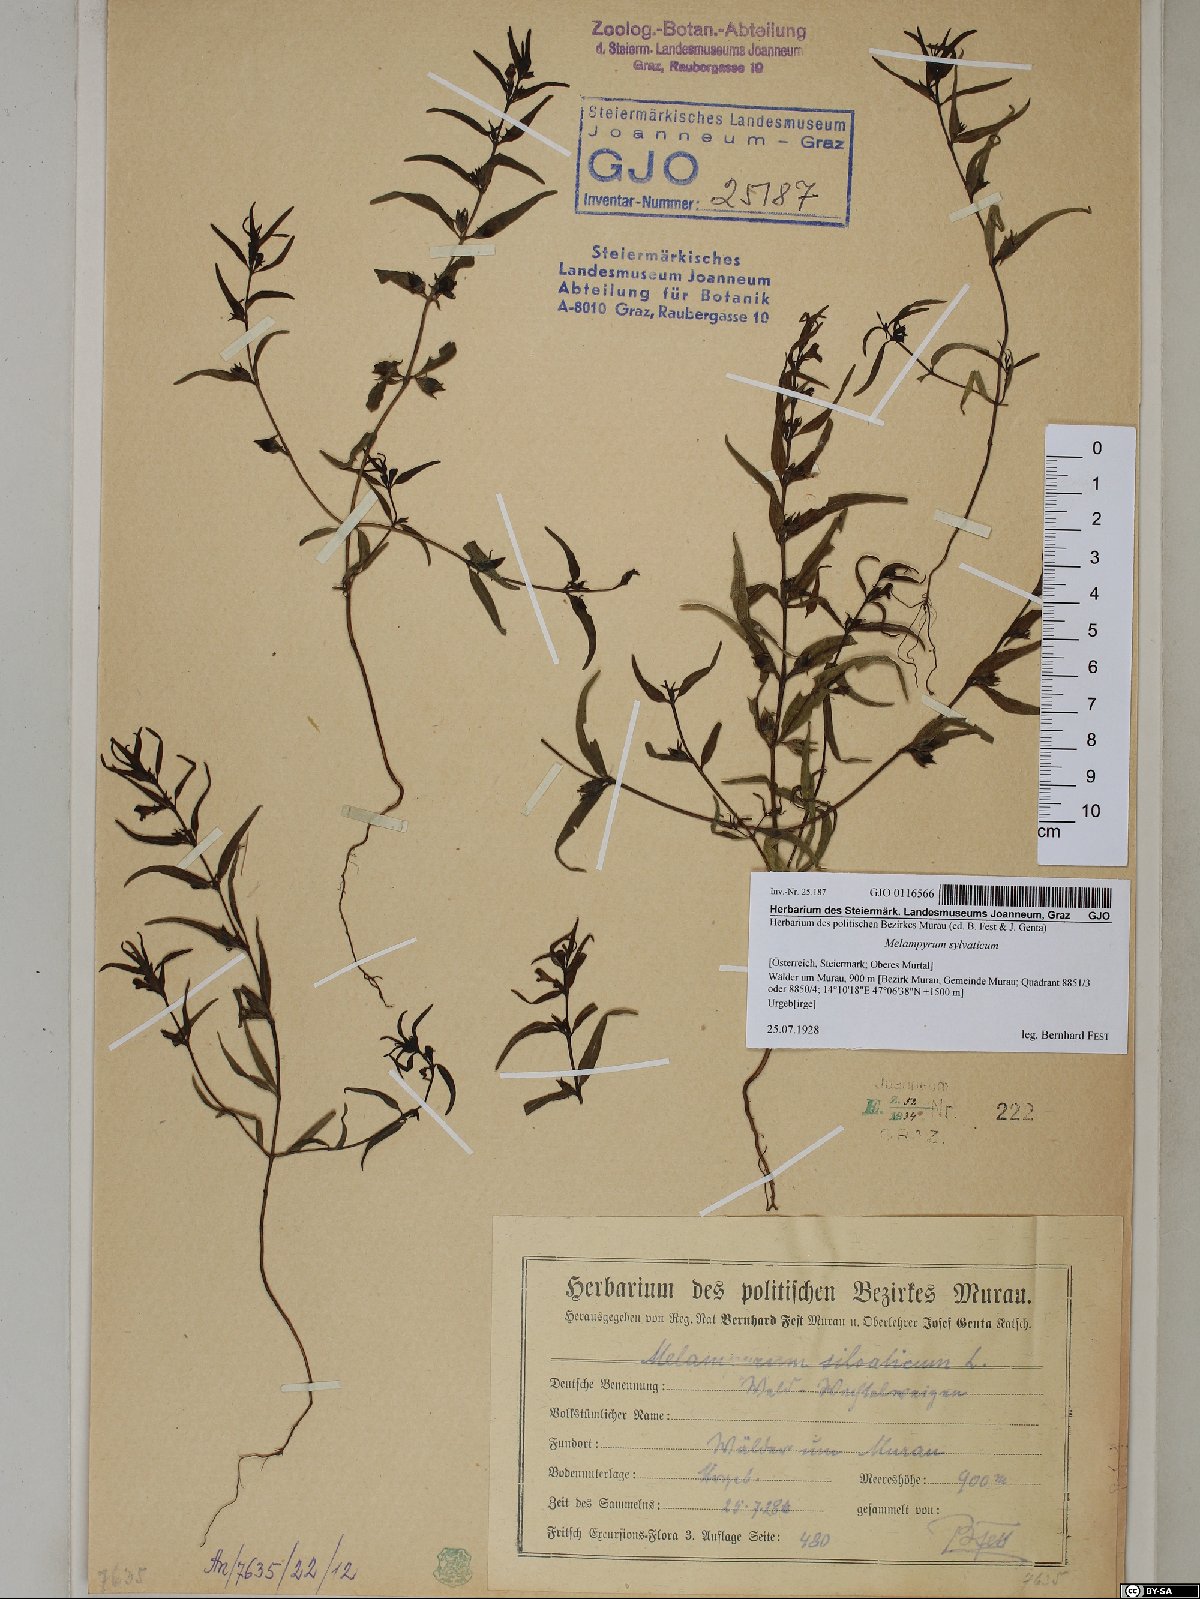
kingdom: Plantae
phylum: Tracheophyta
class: Magnoliopsida
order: Lamiales
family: Orobanchaceae
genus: Melampyrum
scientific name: Melampyrum sylvaticum
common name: Small cow-wheat
